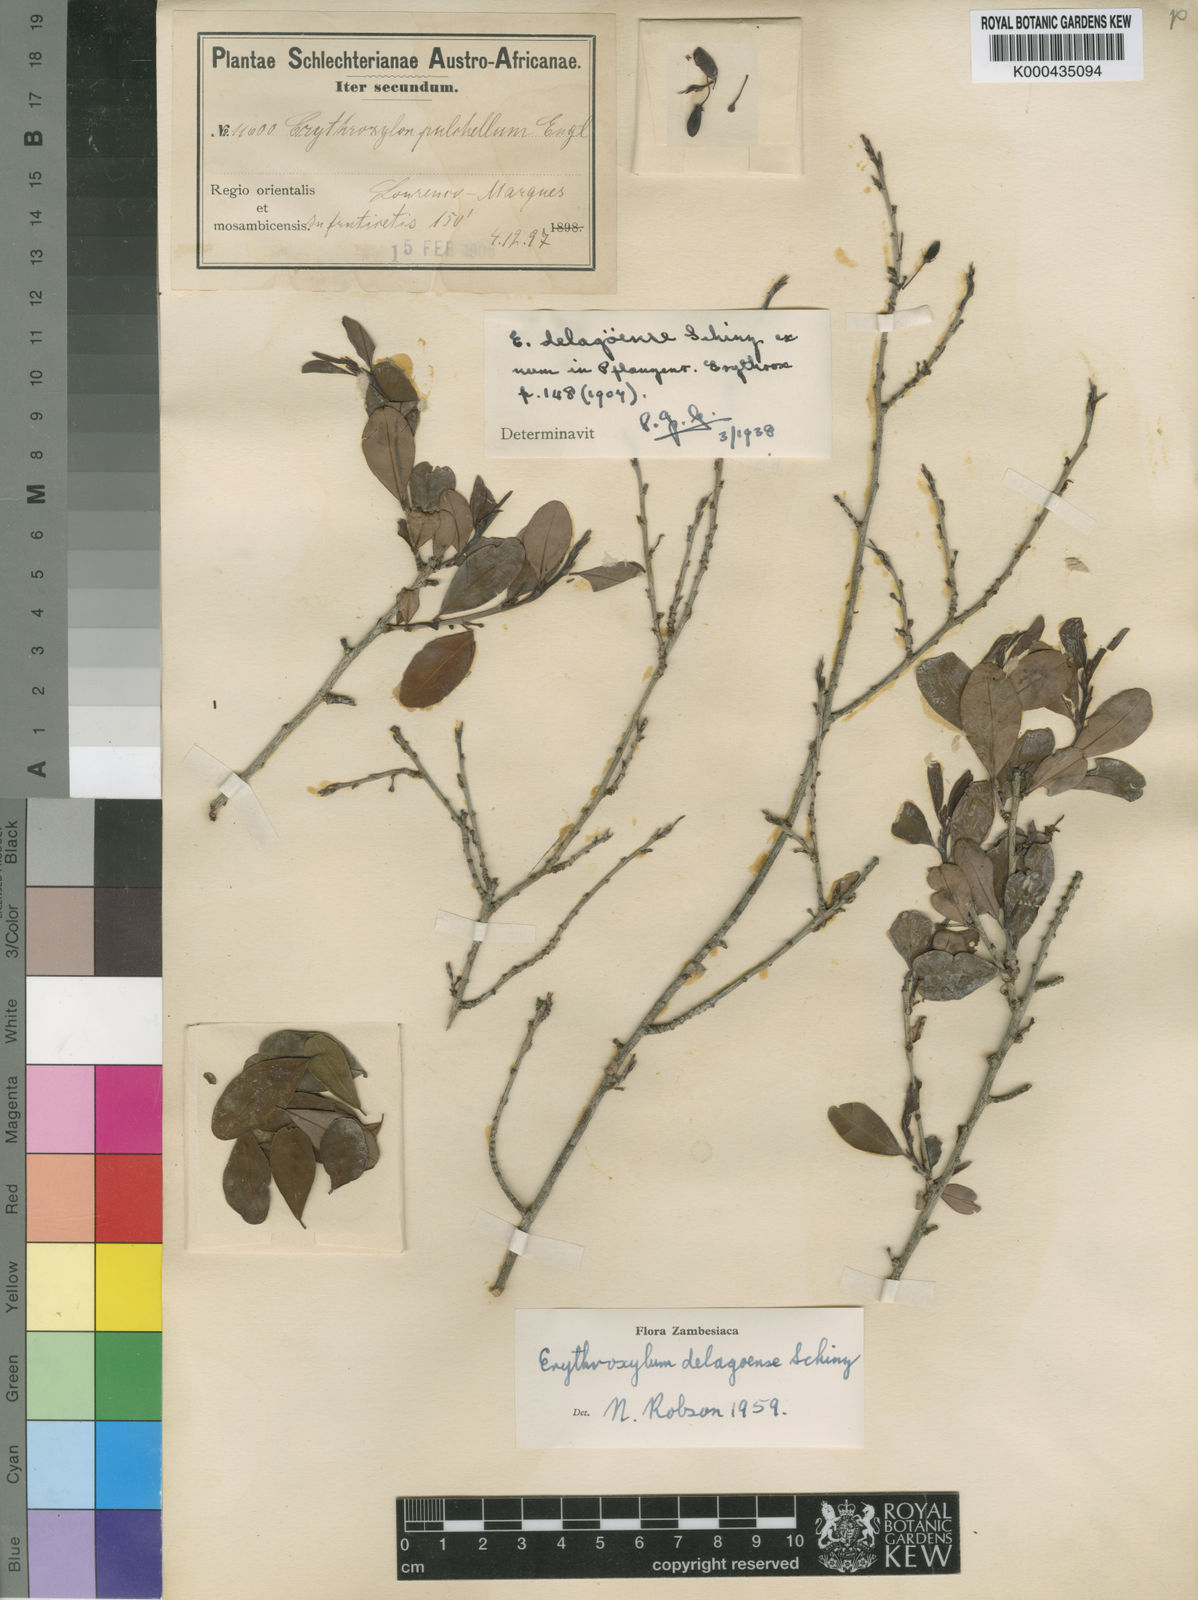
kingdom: Plantae
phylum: Tracheophyta
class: Magnoliopsida
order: Malpighiales
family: Erythroxylaceae
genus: Erythroxylum
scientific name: Erythroxylum delagoense
